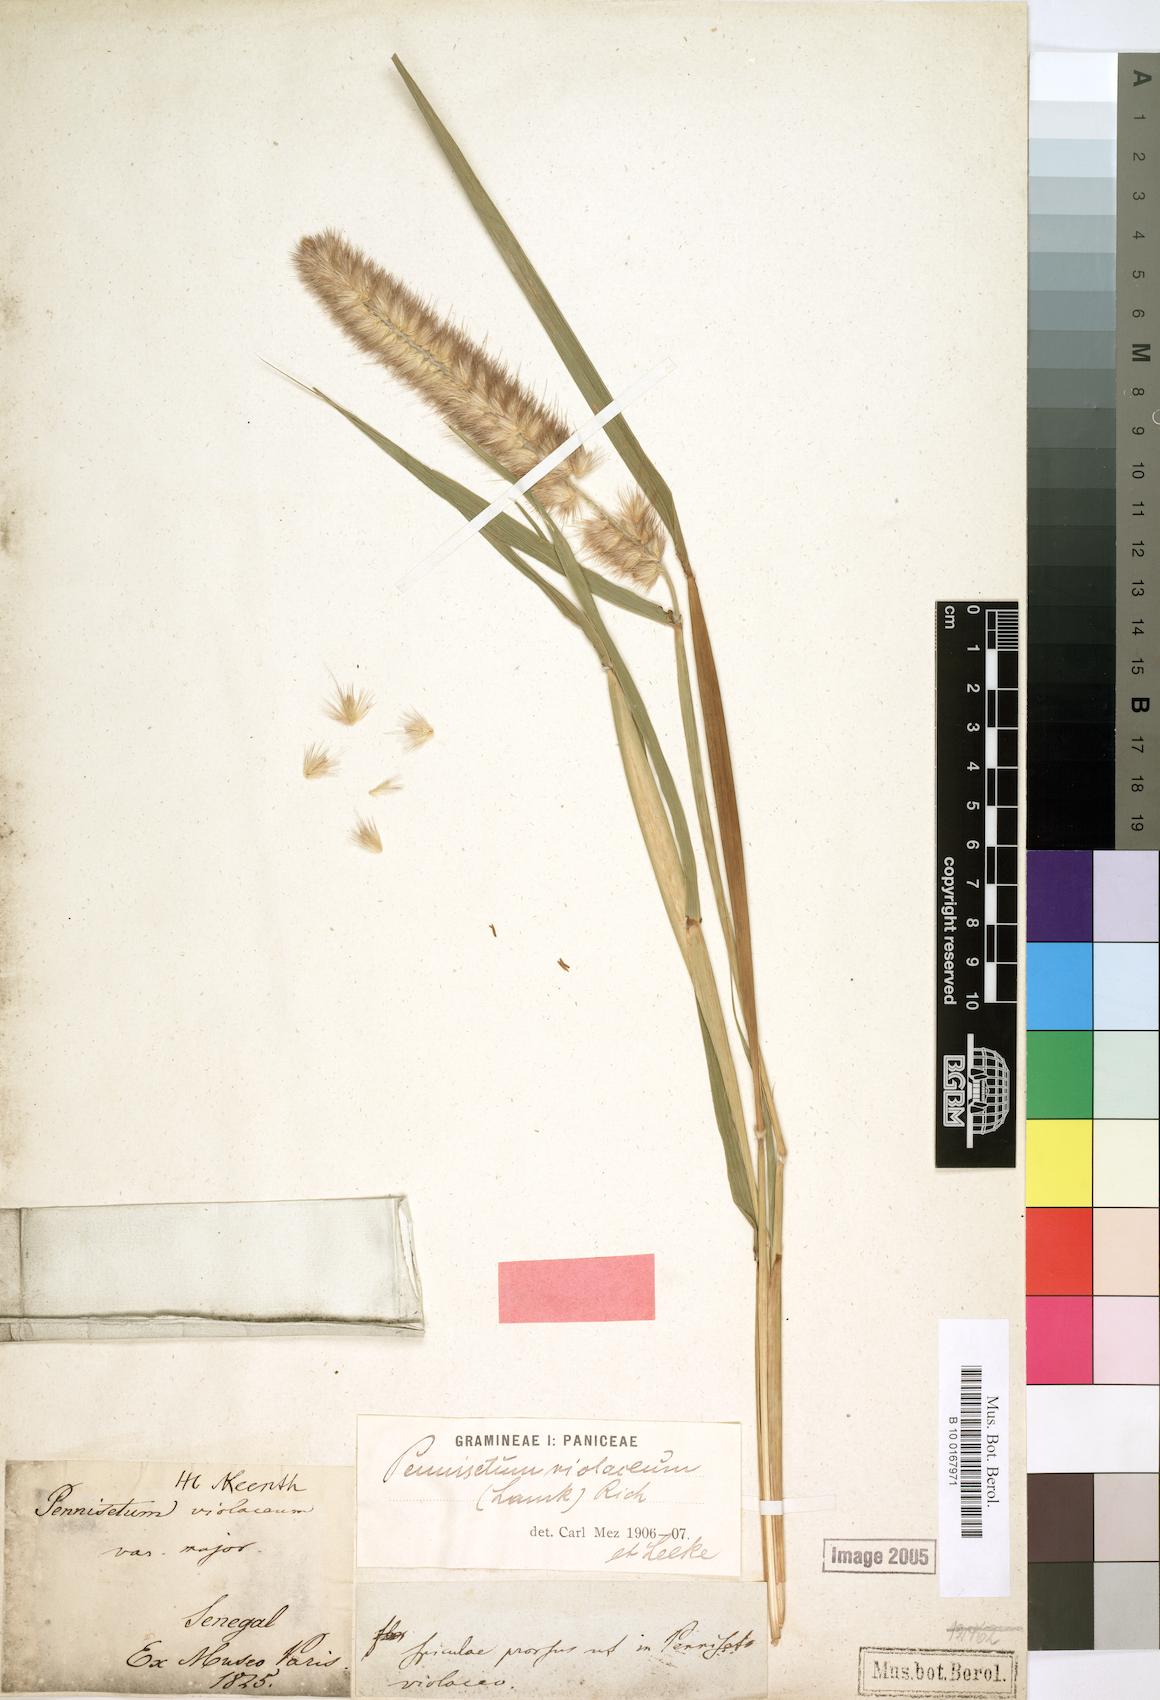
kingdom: Plantae
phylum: Tracheophyta
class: Liliopsida
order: Poales
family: Poaceae
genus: Cenchrus
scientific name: Cenchrus violaceus
